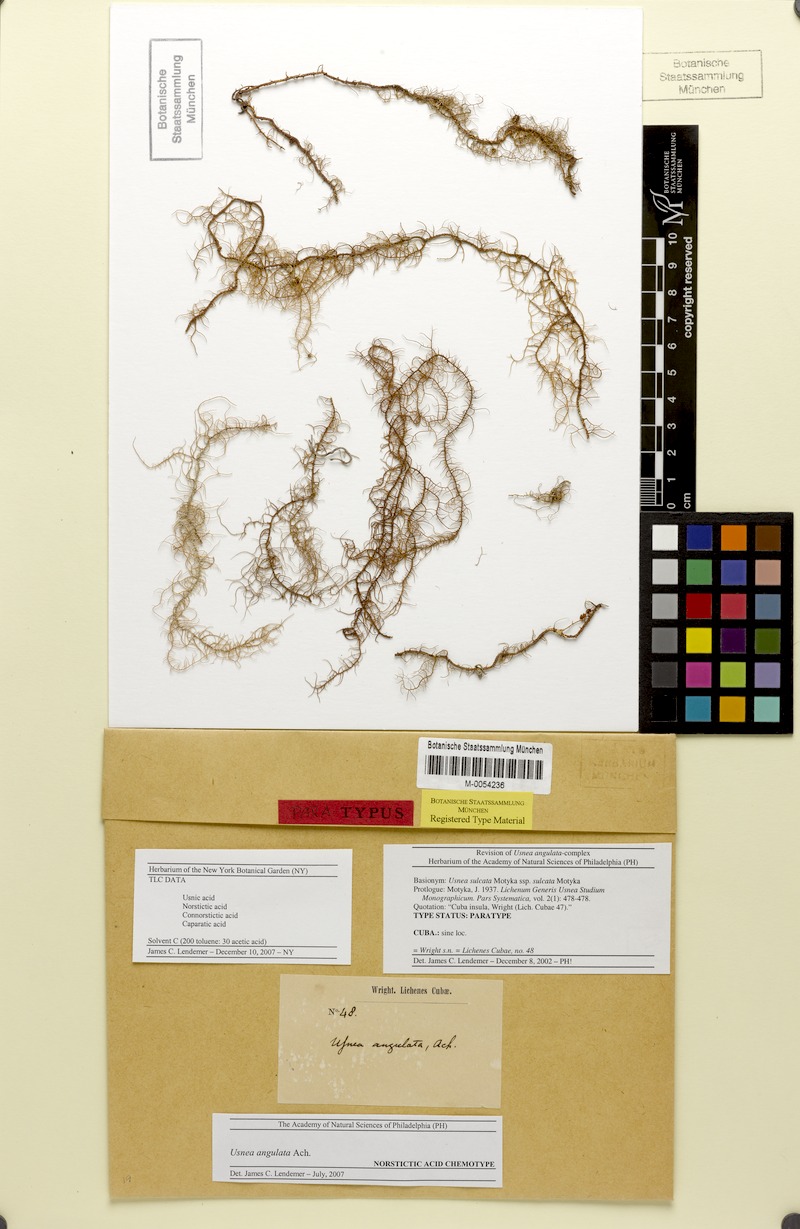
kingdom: Fungi
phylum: Ascomycota
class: Lecanoromycetes
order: Lecanorales
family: Parmeliaceae
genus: Usnea
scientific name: Usnea angulata
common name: Old-man’s beard lichen
